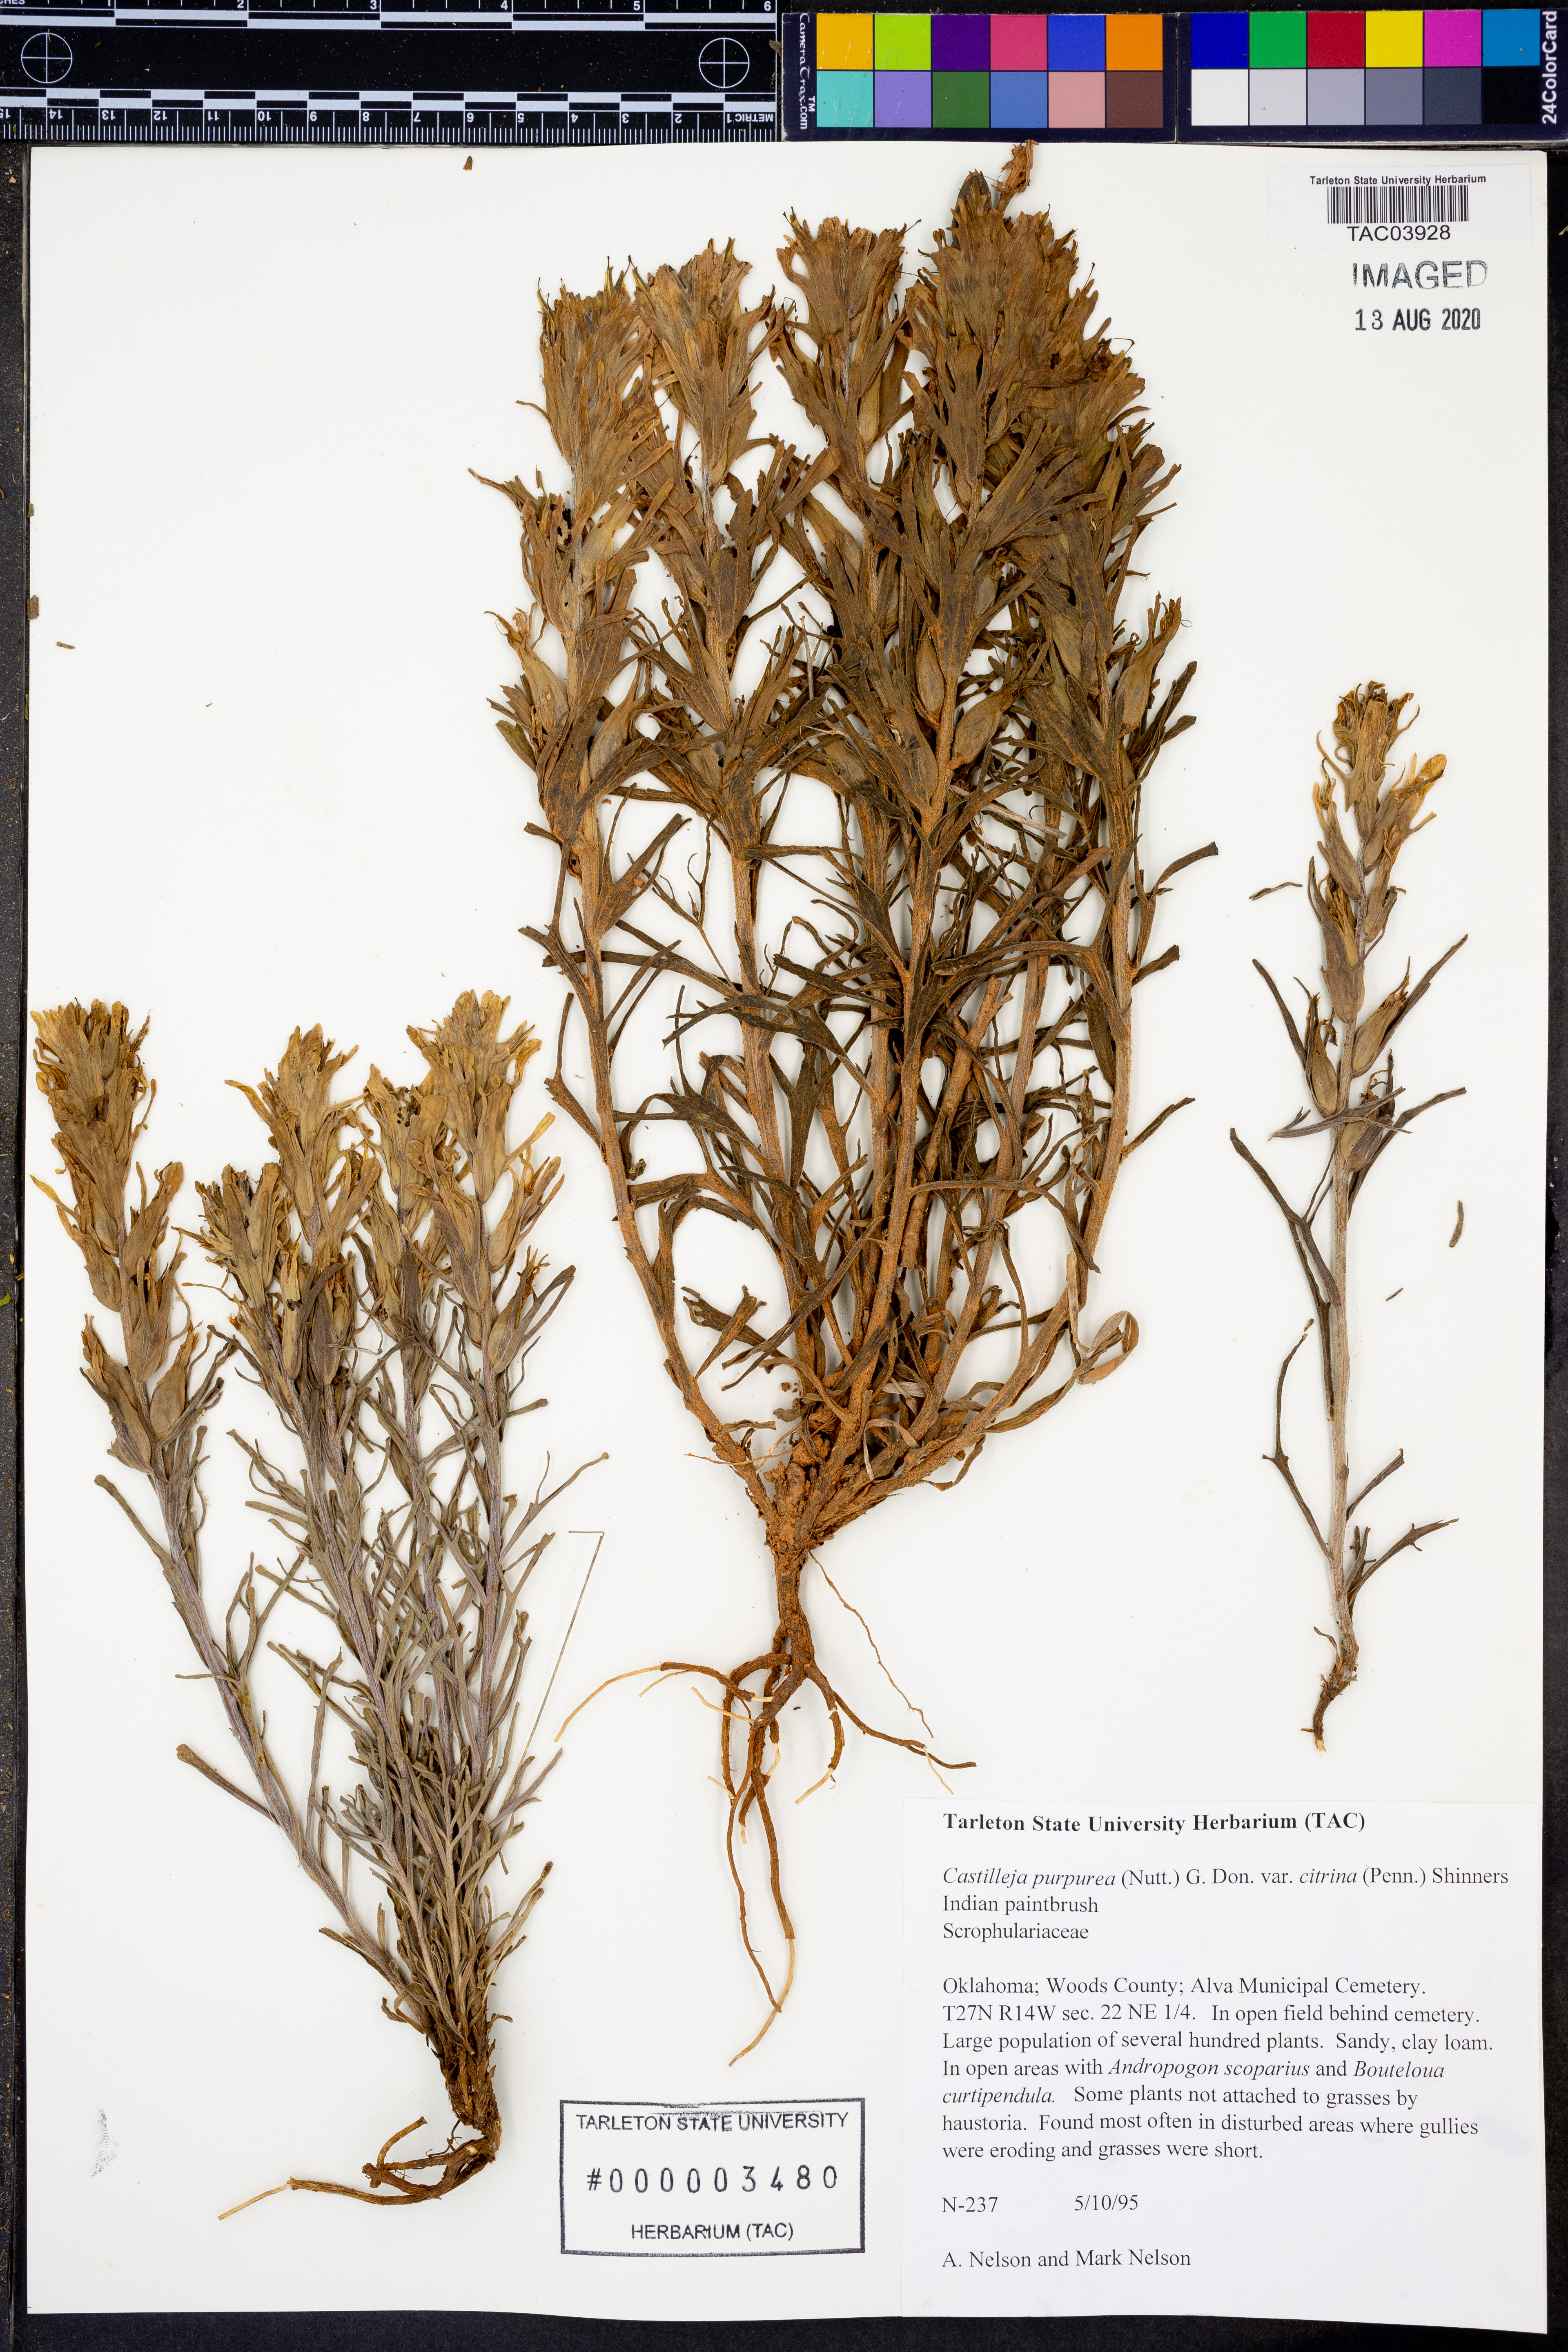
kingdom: Plantae
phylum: Tracheophyta
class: Magnoliopsida
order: Lamiales
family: Orobanchaceae
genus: Castilleja
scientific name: Castilleja citrina
